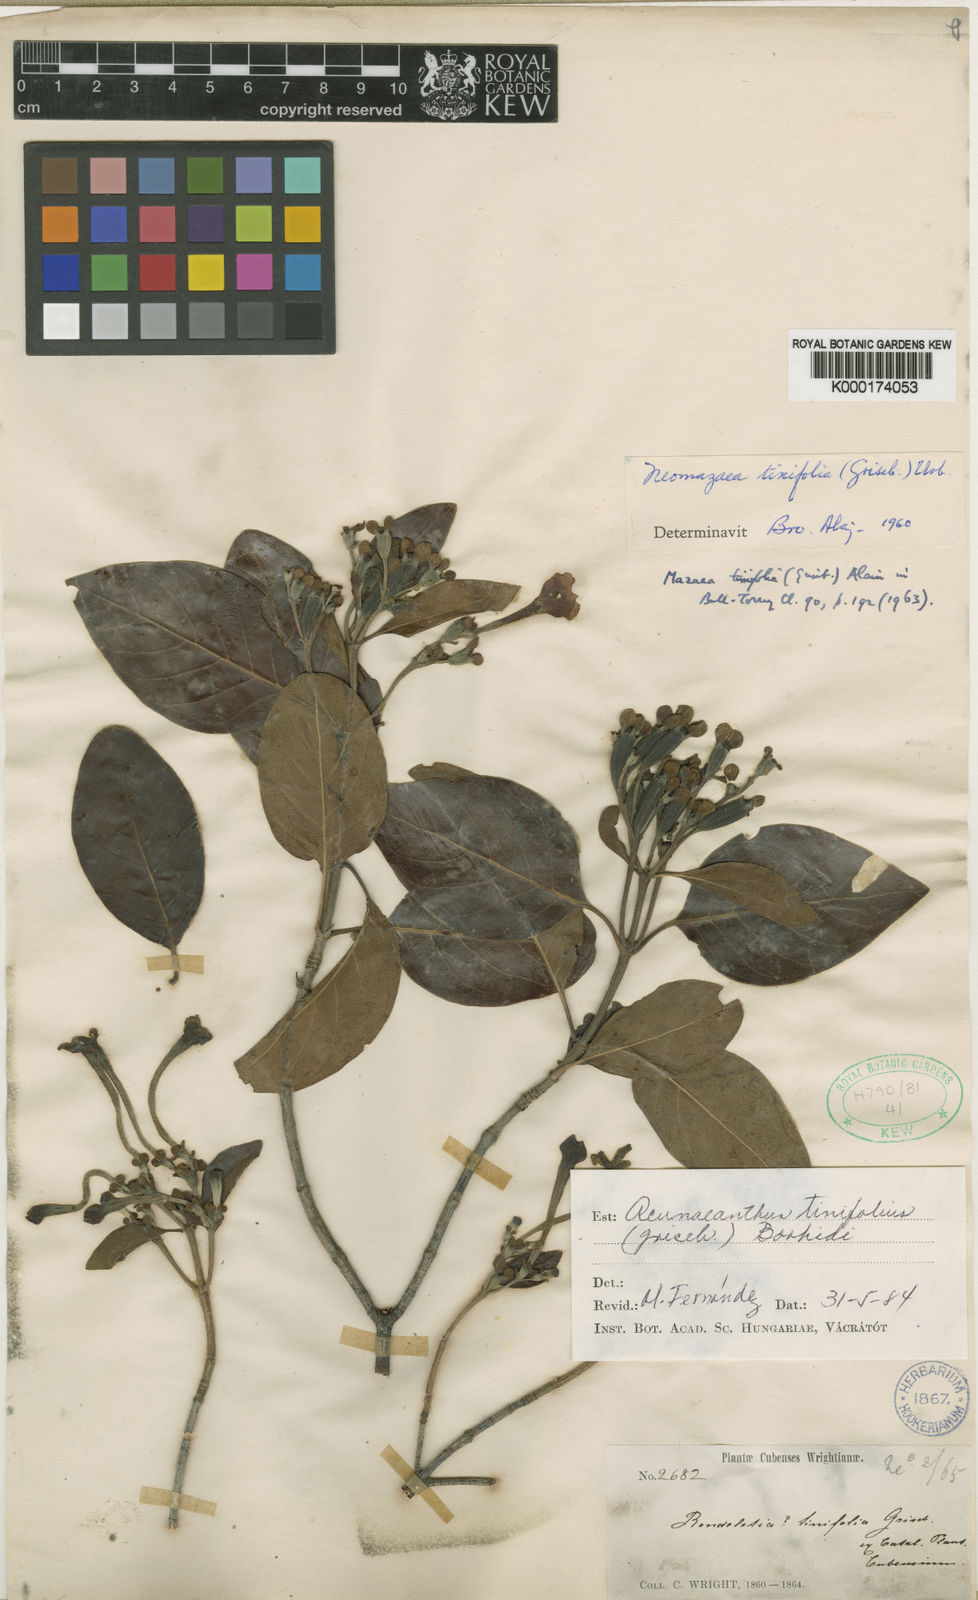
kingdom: Plantae
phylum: Tracheophyta
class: Magnoliopsida
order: Gentianales
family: Rubiaceae
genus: Acunaeanthus
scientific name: Acunaeanthus tinifolius
